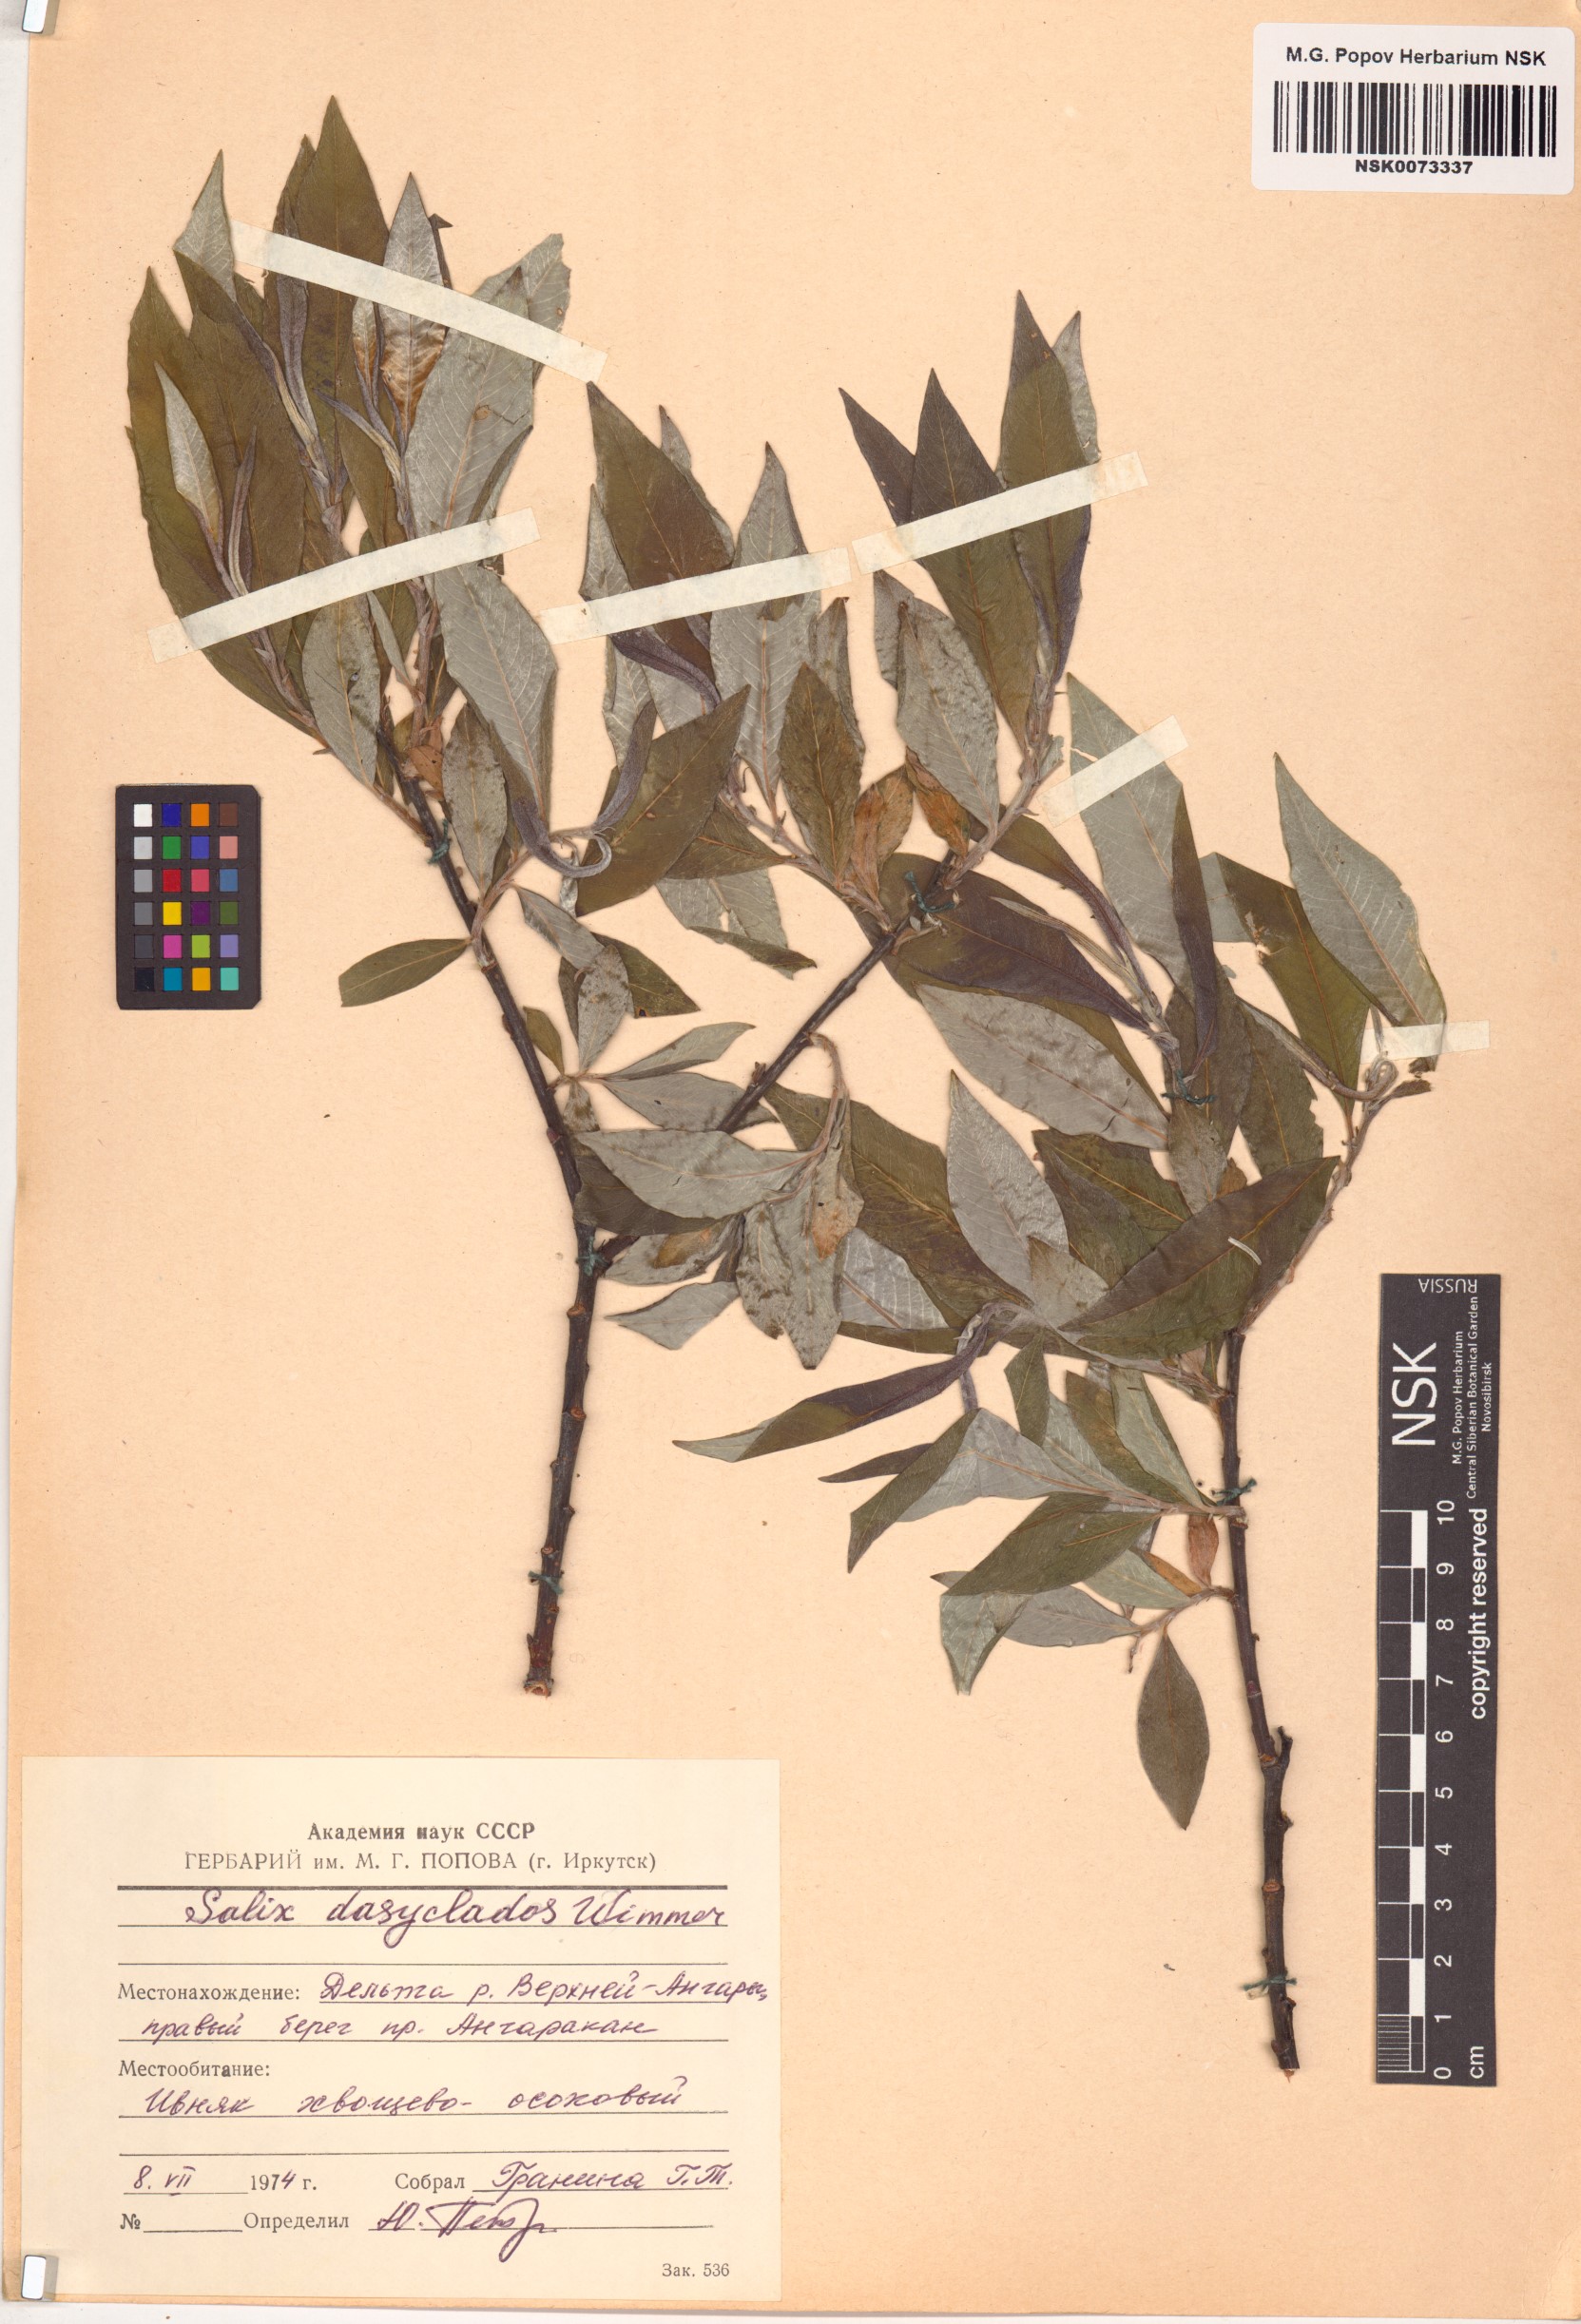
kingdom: Plantae
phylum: Tracheophyta
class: Magnoliopsida
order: Malpighiales
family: Salicaceae
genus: Salix
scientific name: Salix gmelinii
